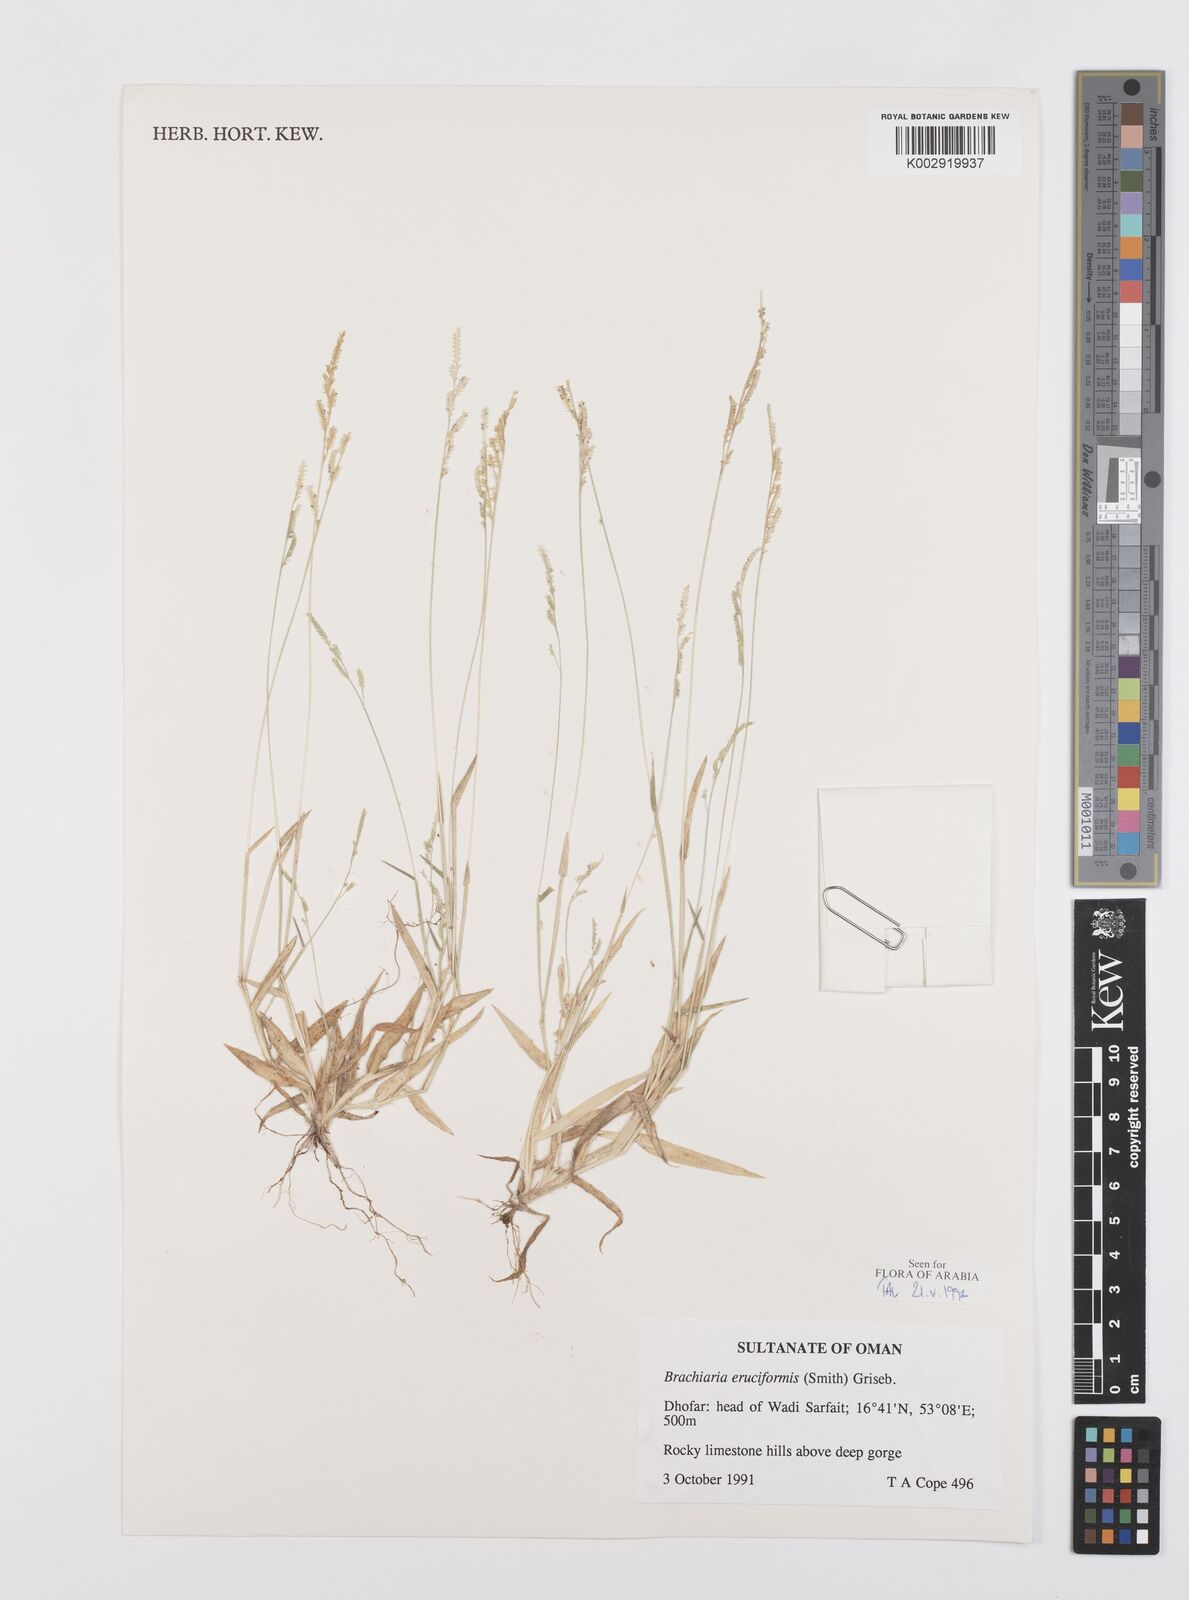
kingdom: Plantae
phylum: Tracheophyta
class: Liliopsida
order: Poales
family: Poaceae
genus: Moorochloa
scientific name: Moorochloa eruciformis
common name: Sweet signalgrass
